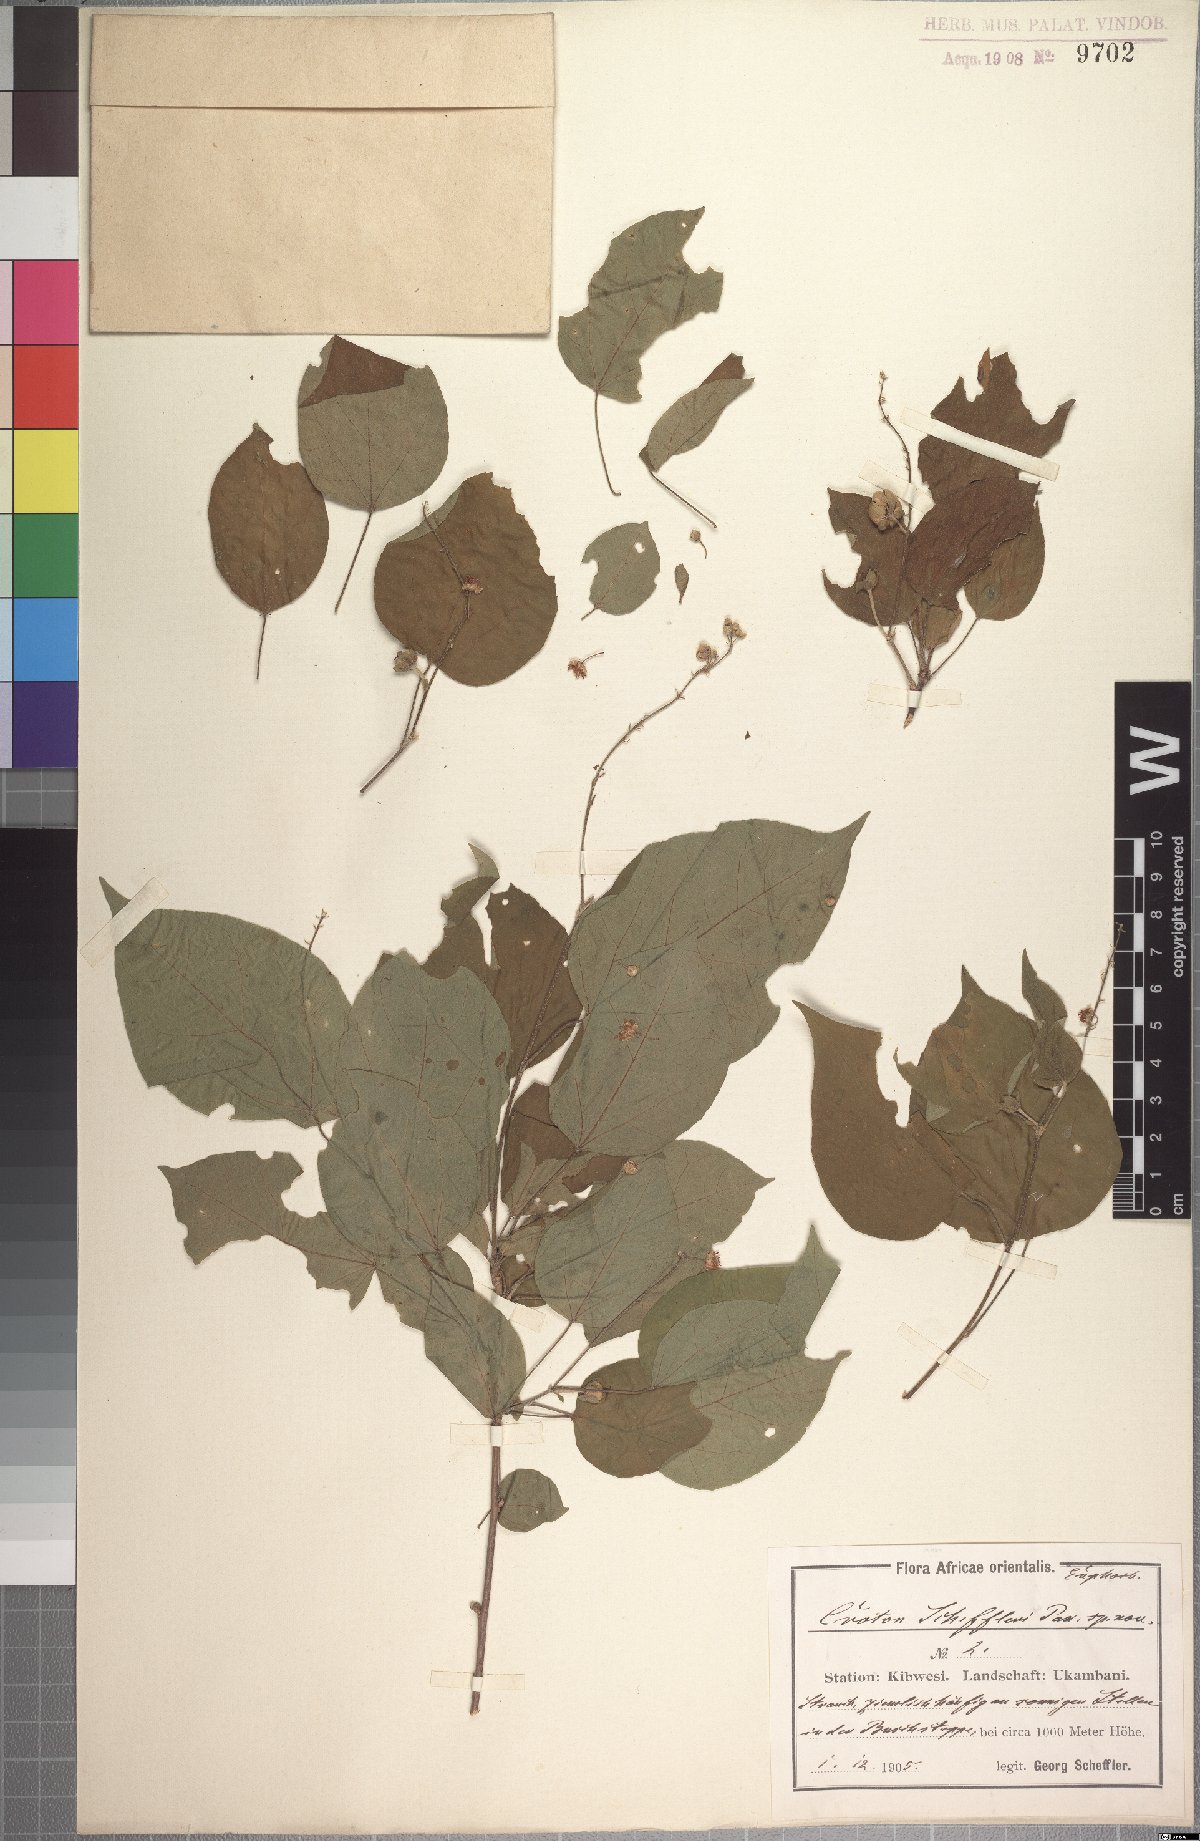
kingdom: Plantae
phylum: Tracheophyta
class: Magnoliopsida
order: Malpighiales
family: Euphorbiaceae
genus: Croton
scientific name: Croton scheffleri
